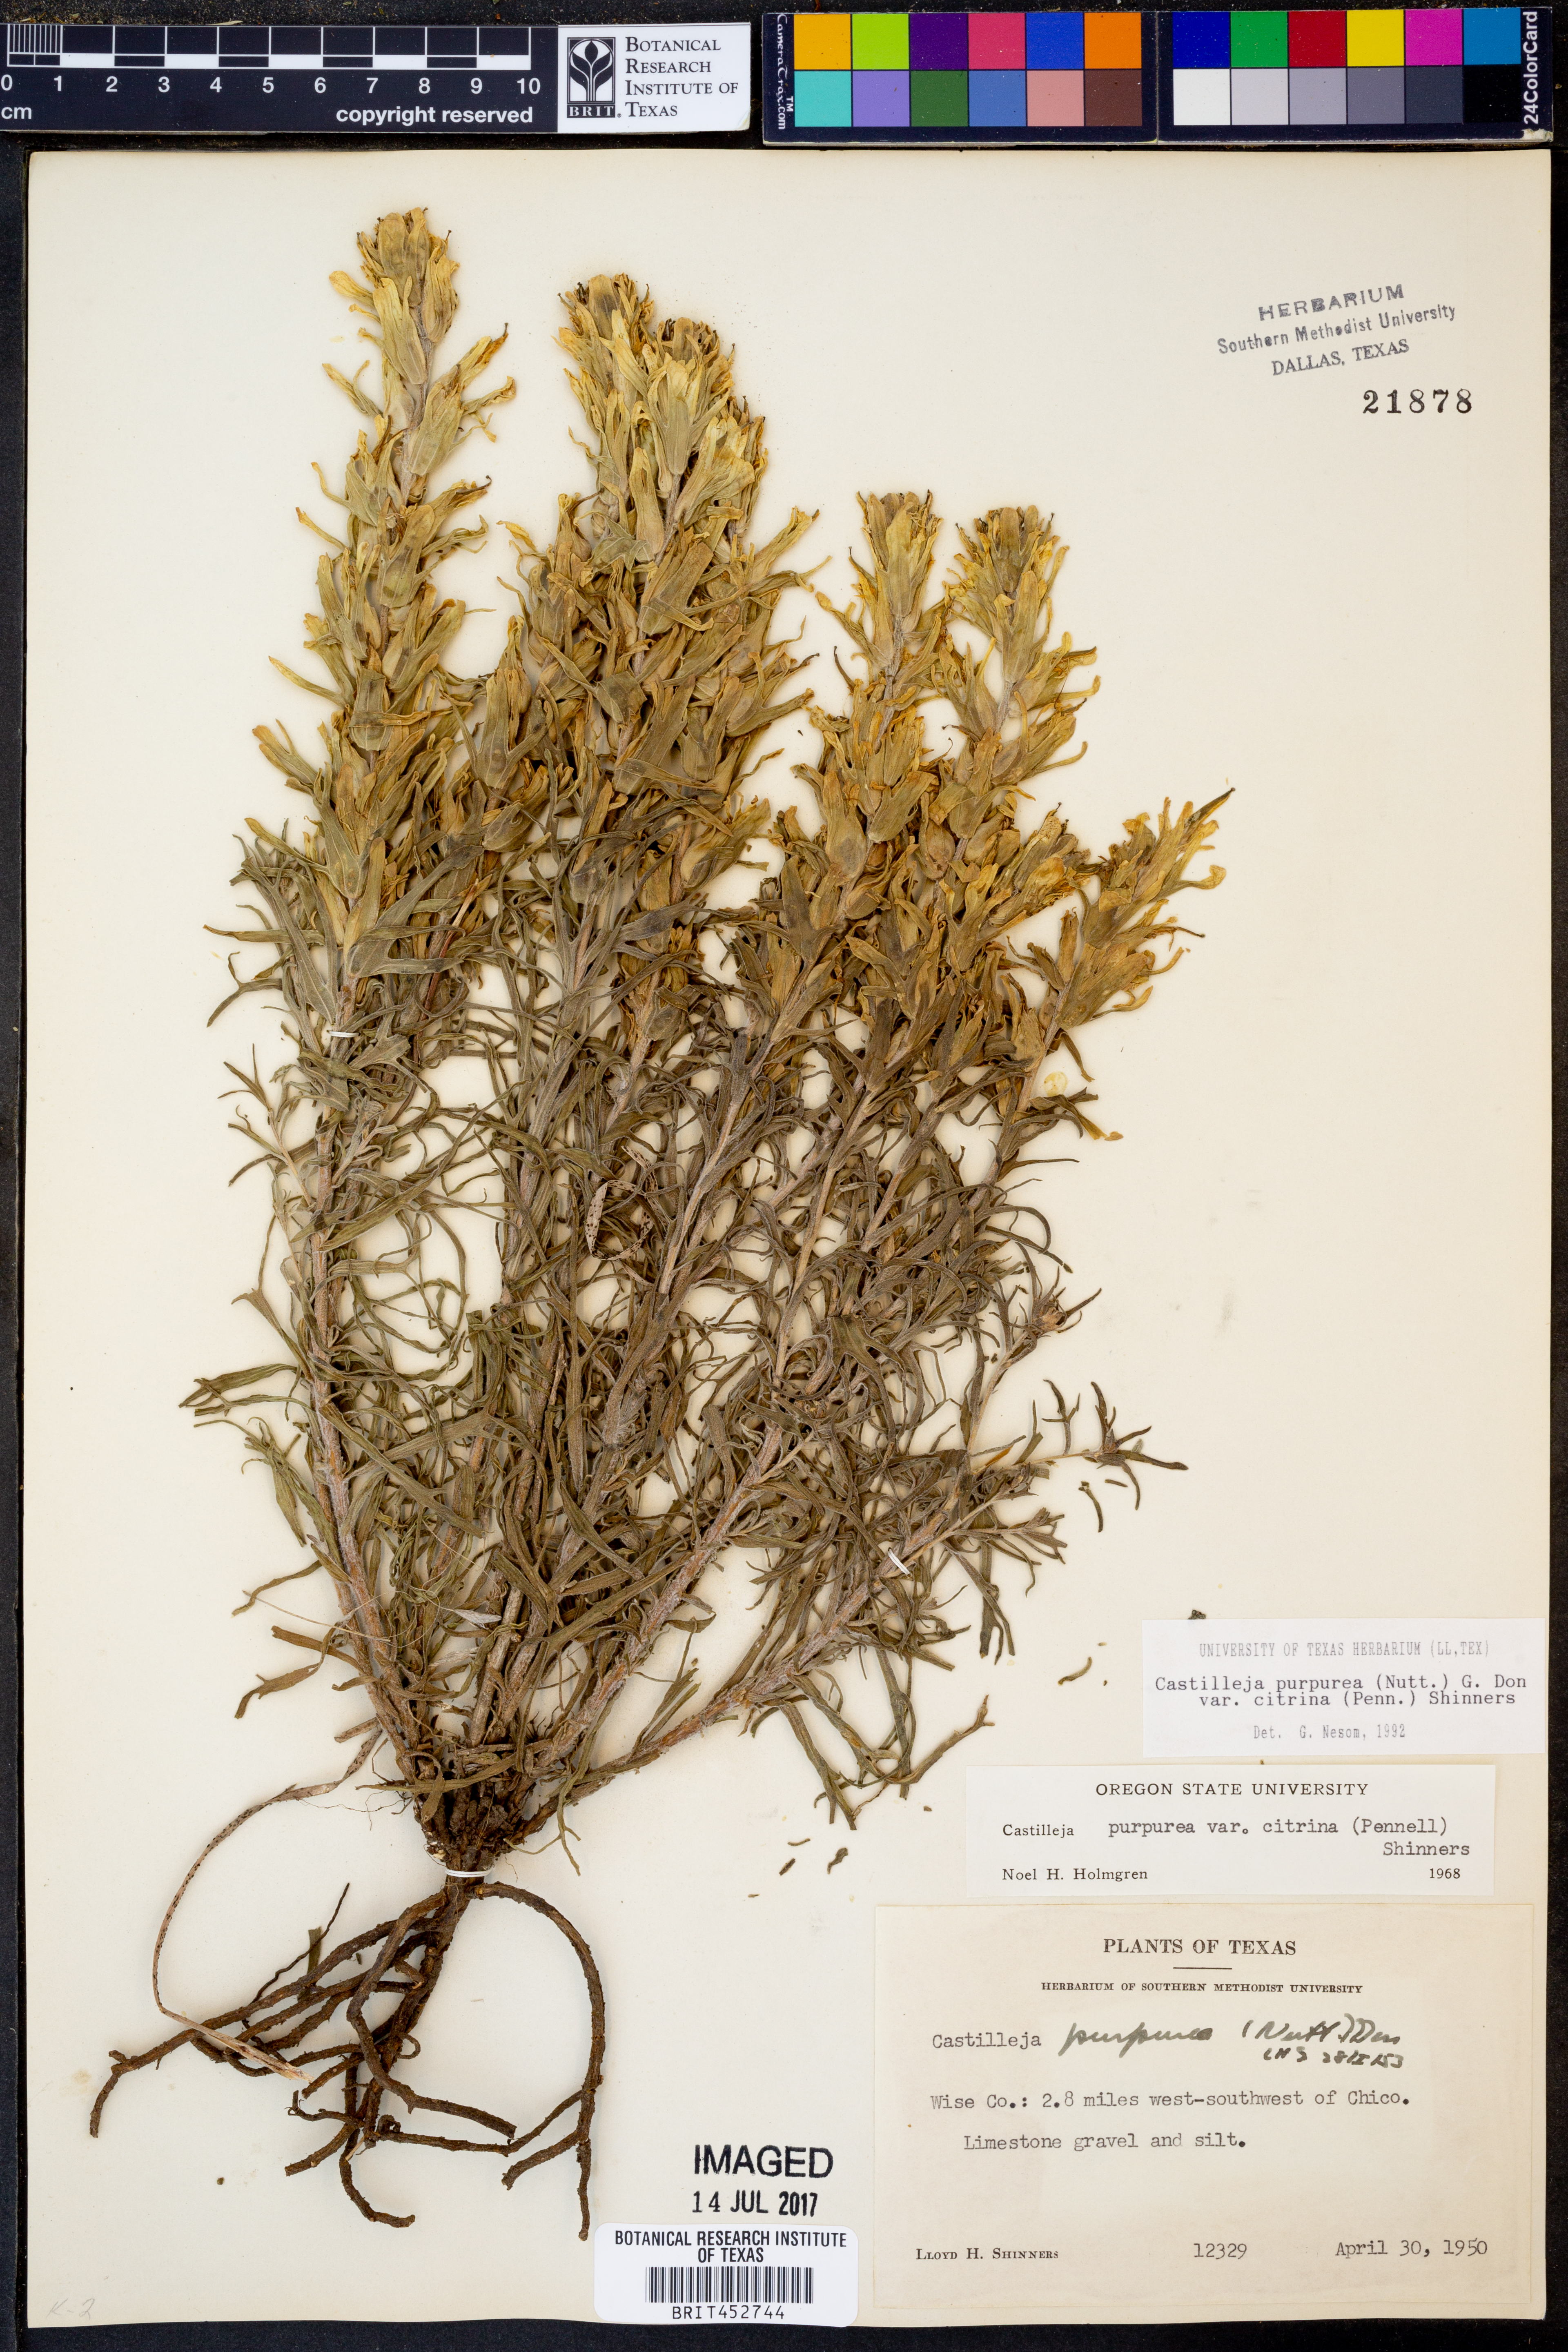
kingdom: Plantae
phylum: Tracheophyta
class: Magnoliopsida
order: Lamiales
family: Orobanchaceae
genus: Castilleja
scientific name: Castilleja purpurea
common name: Plains paintbrush
